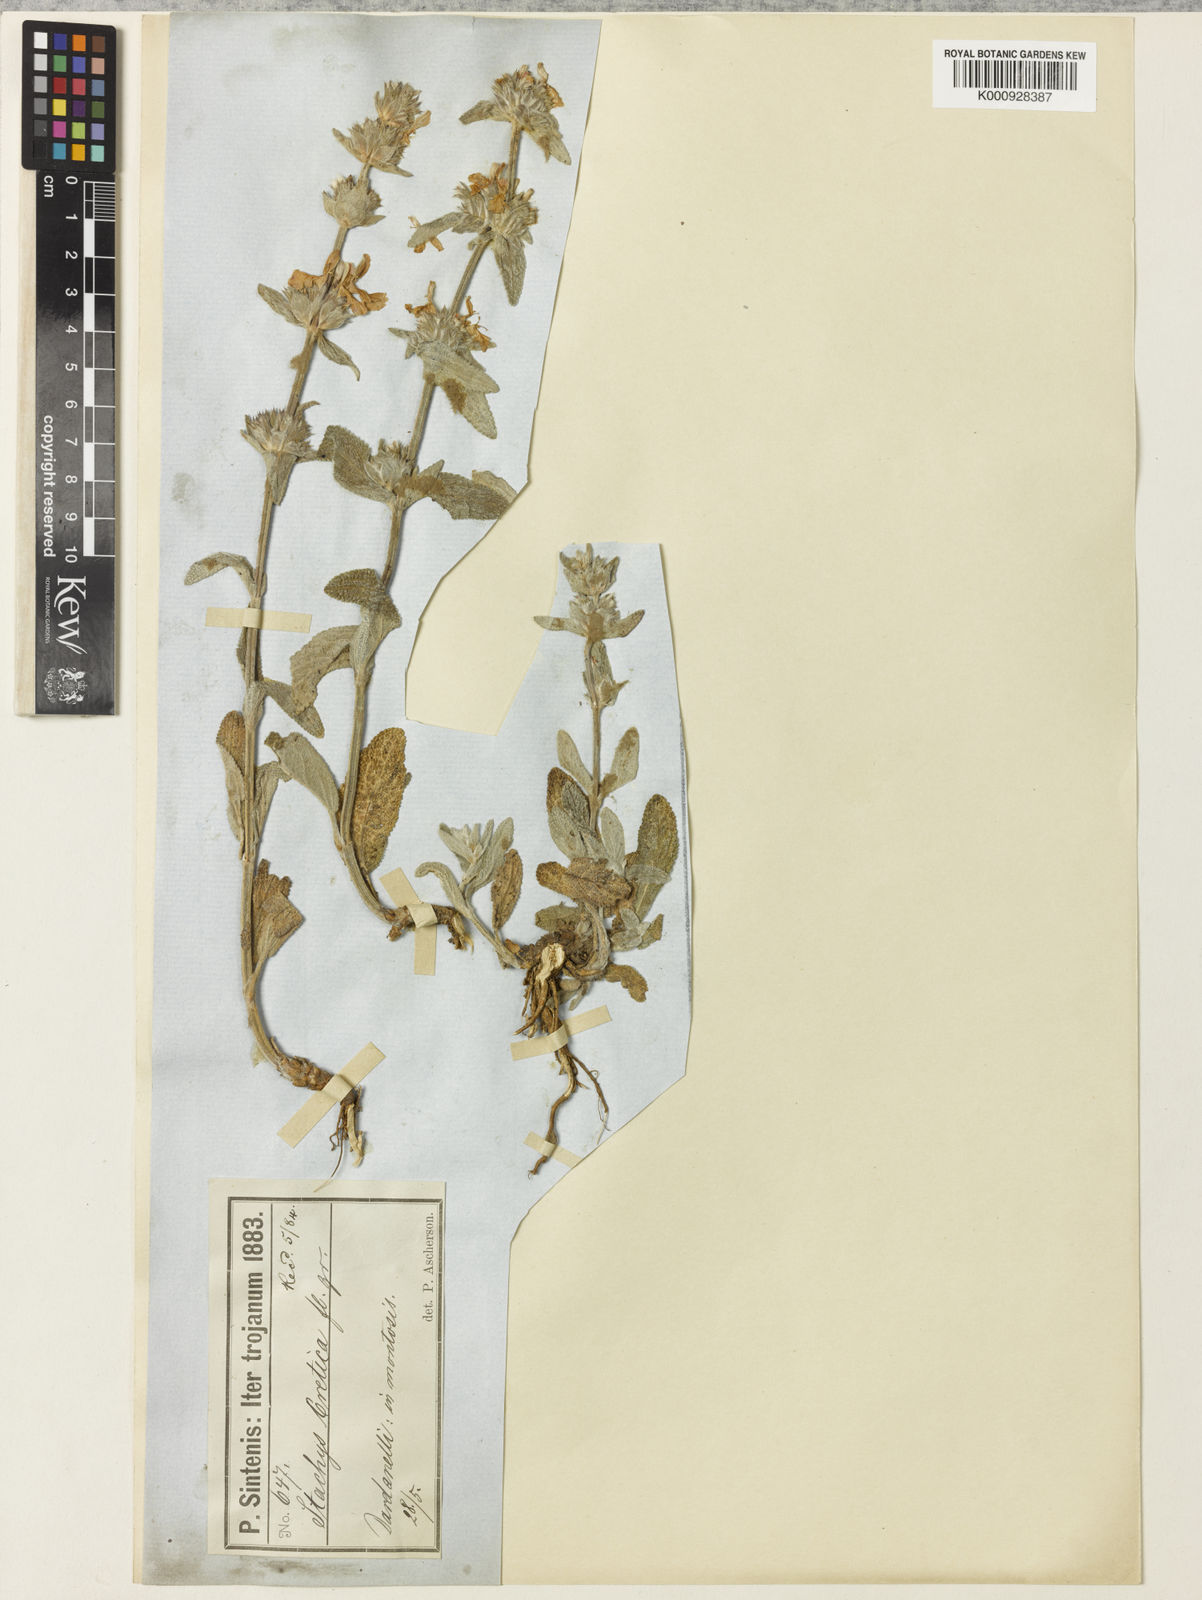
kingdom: Plantae
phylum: Tracheophyta
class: Magnoliopsida
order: Lamiales
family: Lamiaceae
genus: Stachys
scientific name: Stachys cretica
